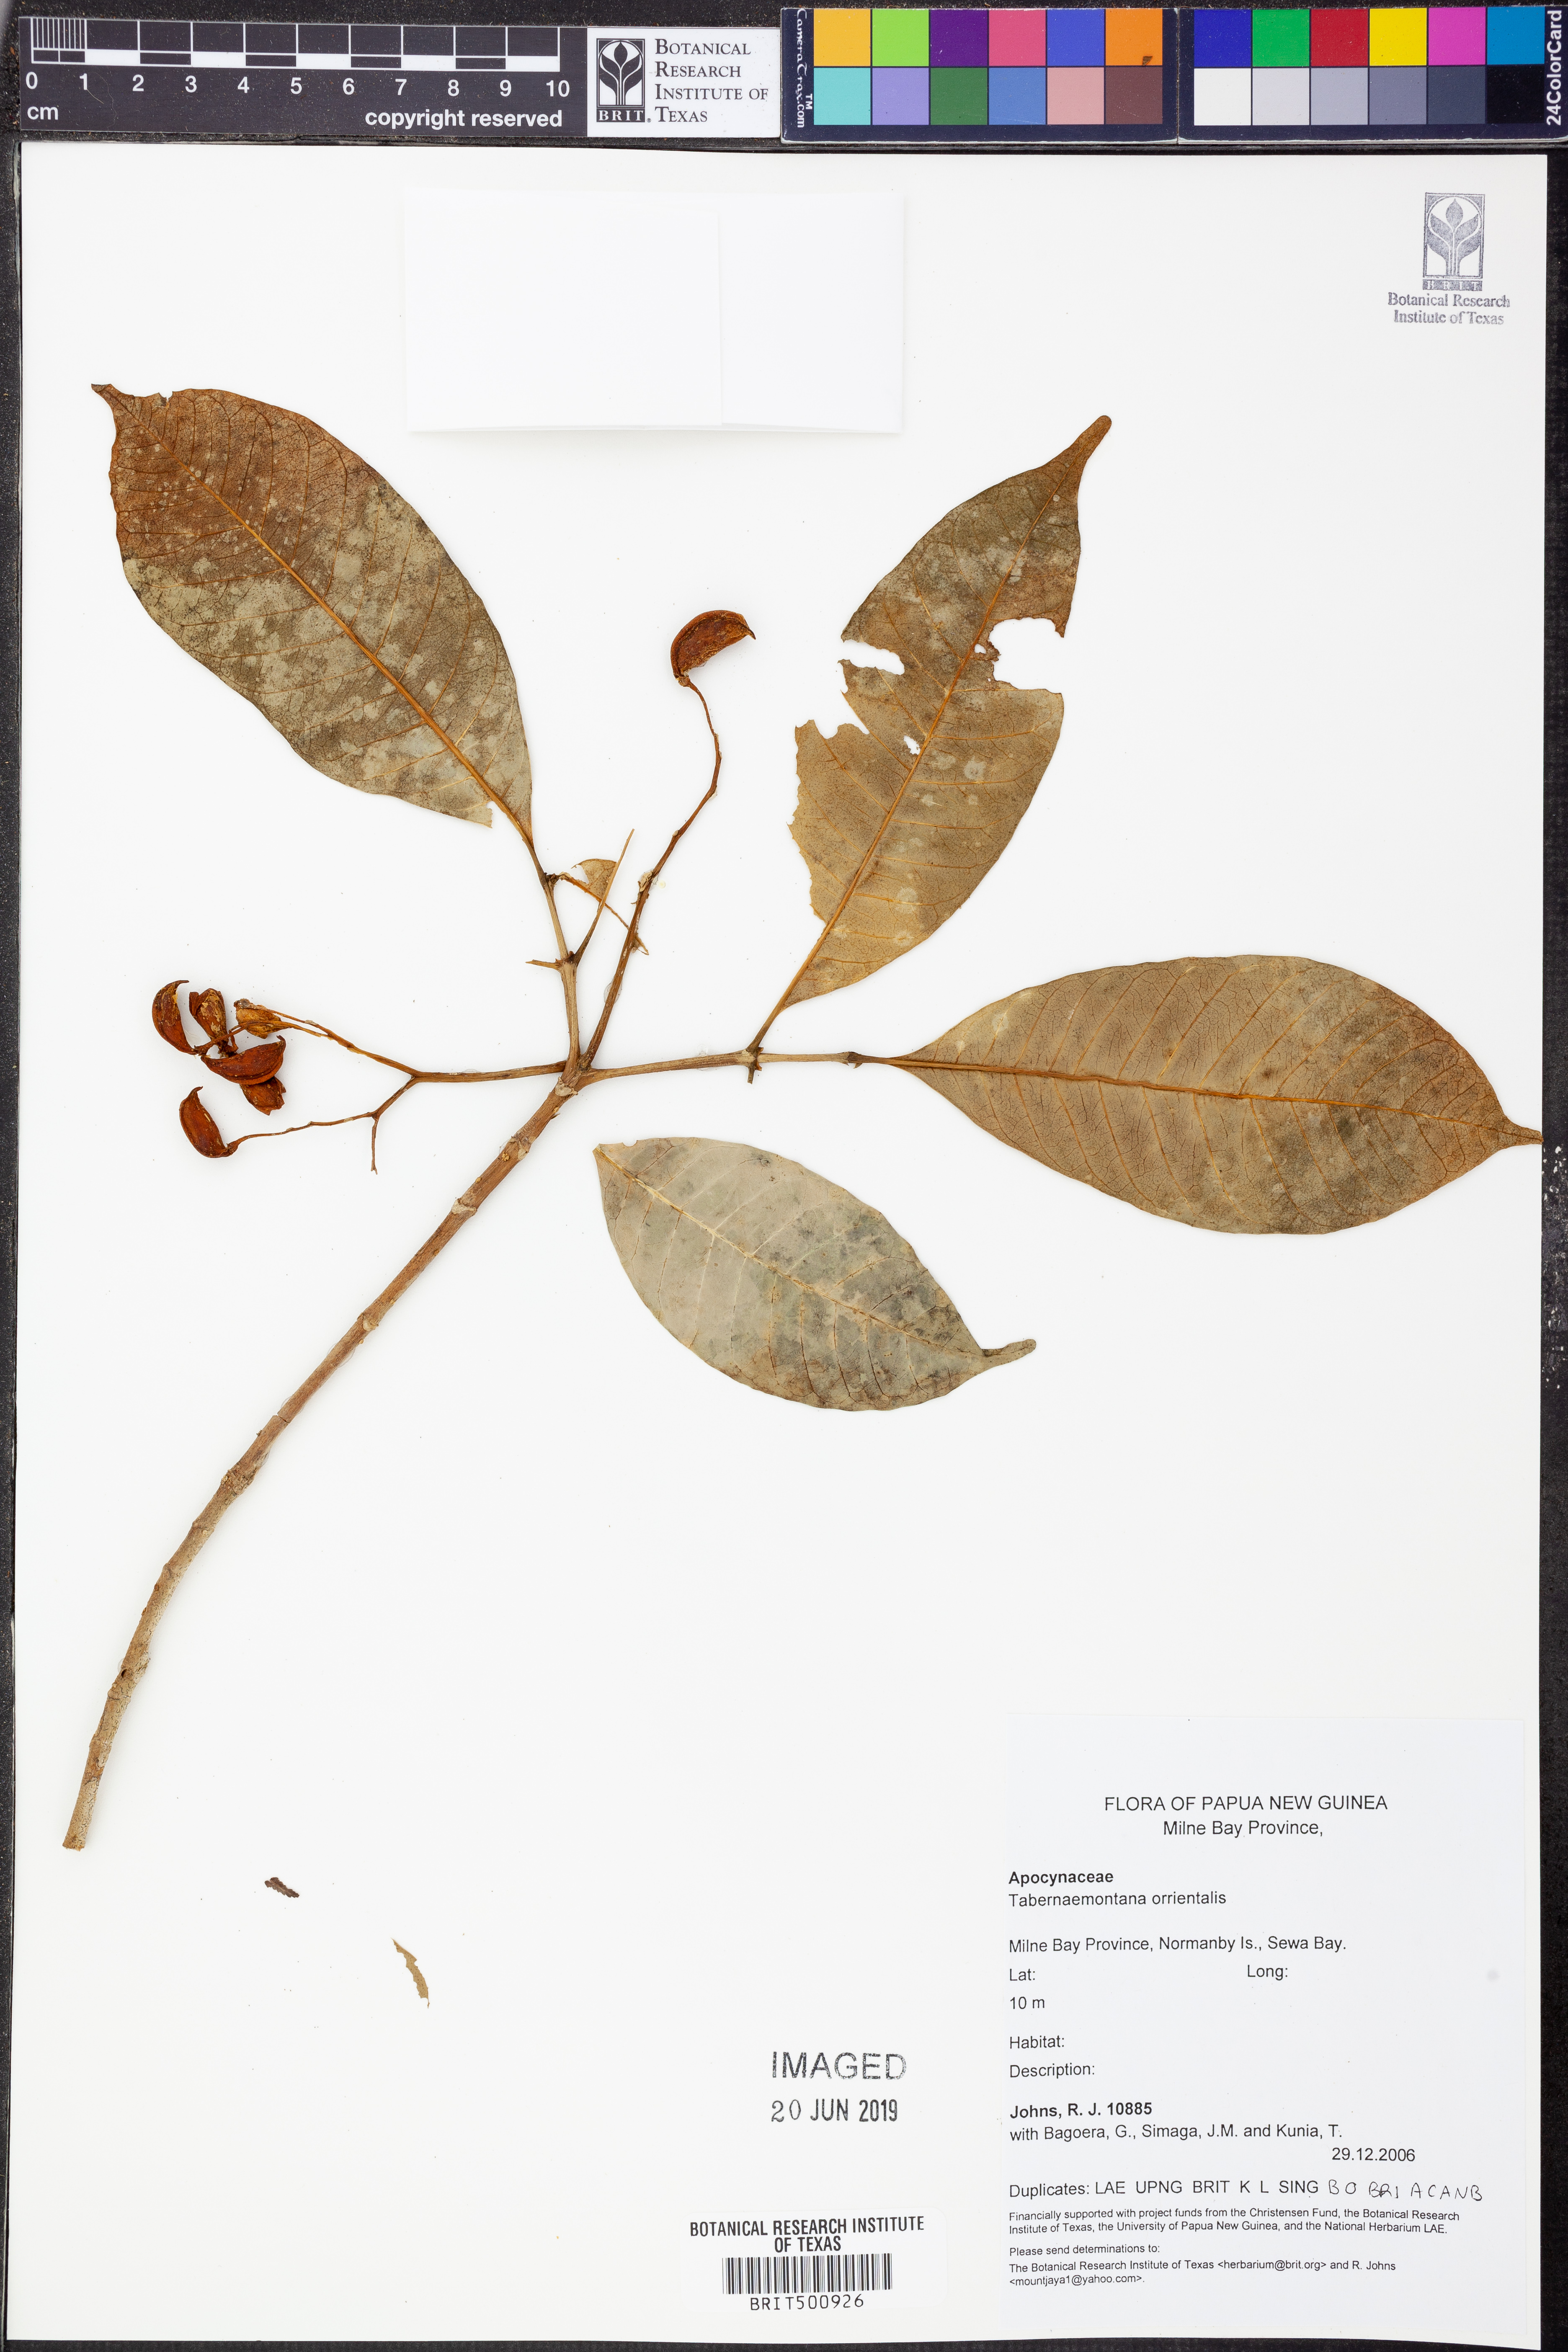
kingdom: Plantae
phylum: Tracheophyta
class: Magnoliopsida
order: Gentianales
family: Apocynaceae
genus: Melodinus
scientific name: Melodinus orientalis
